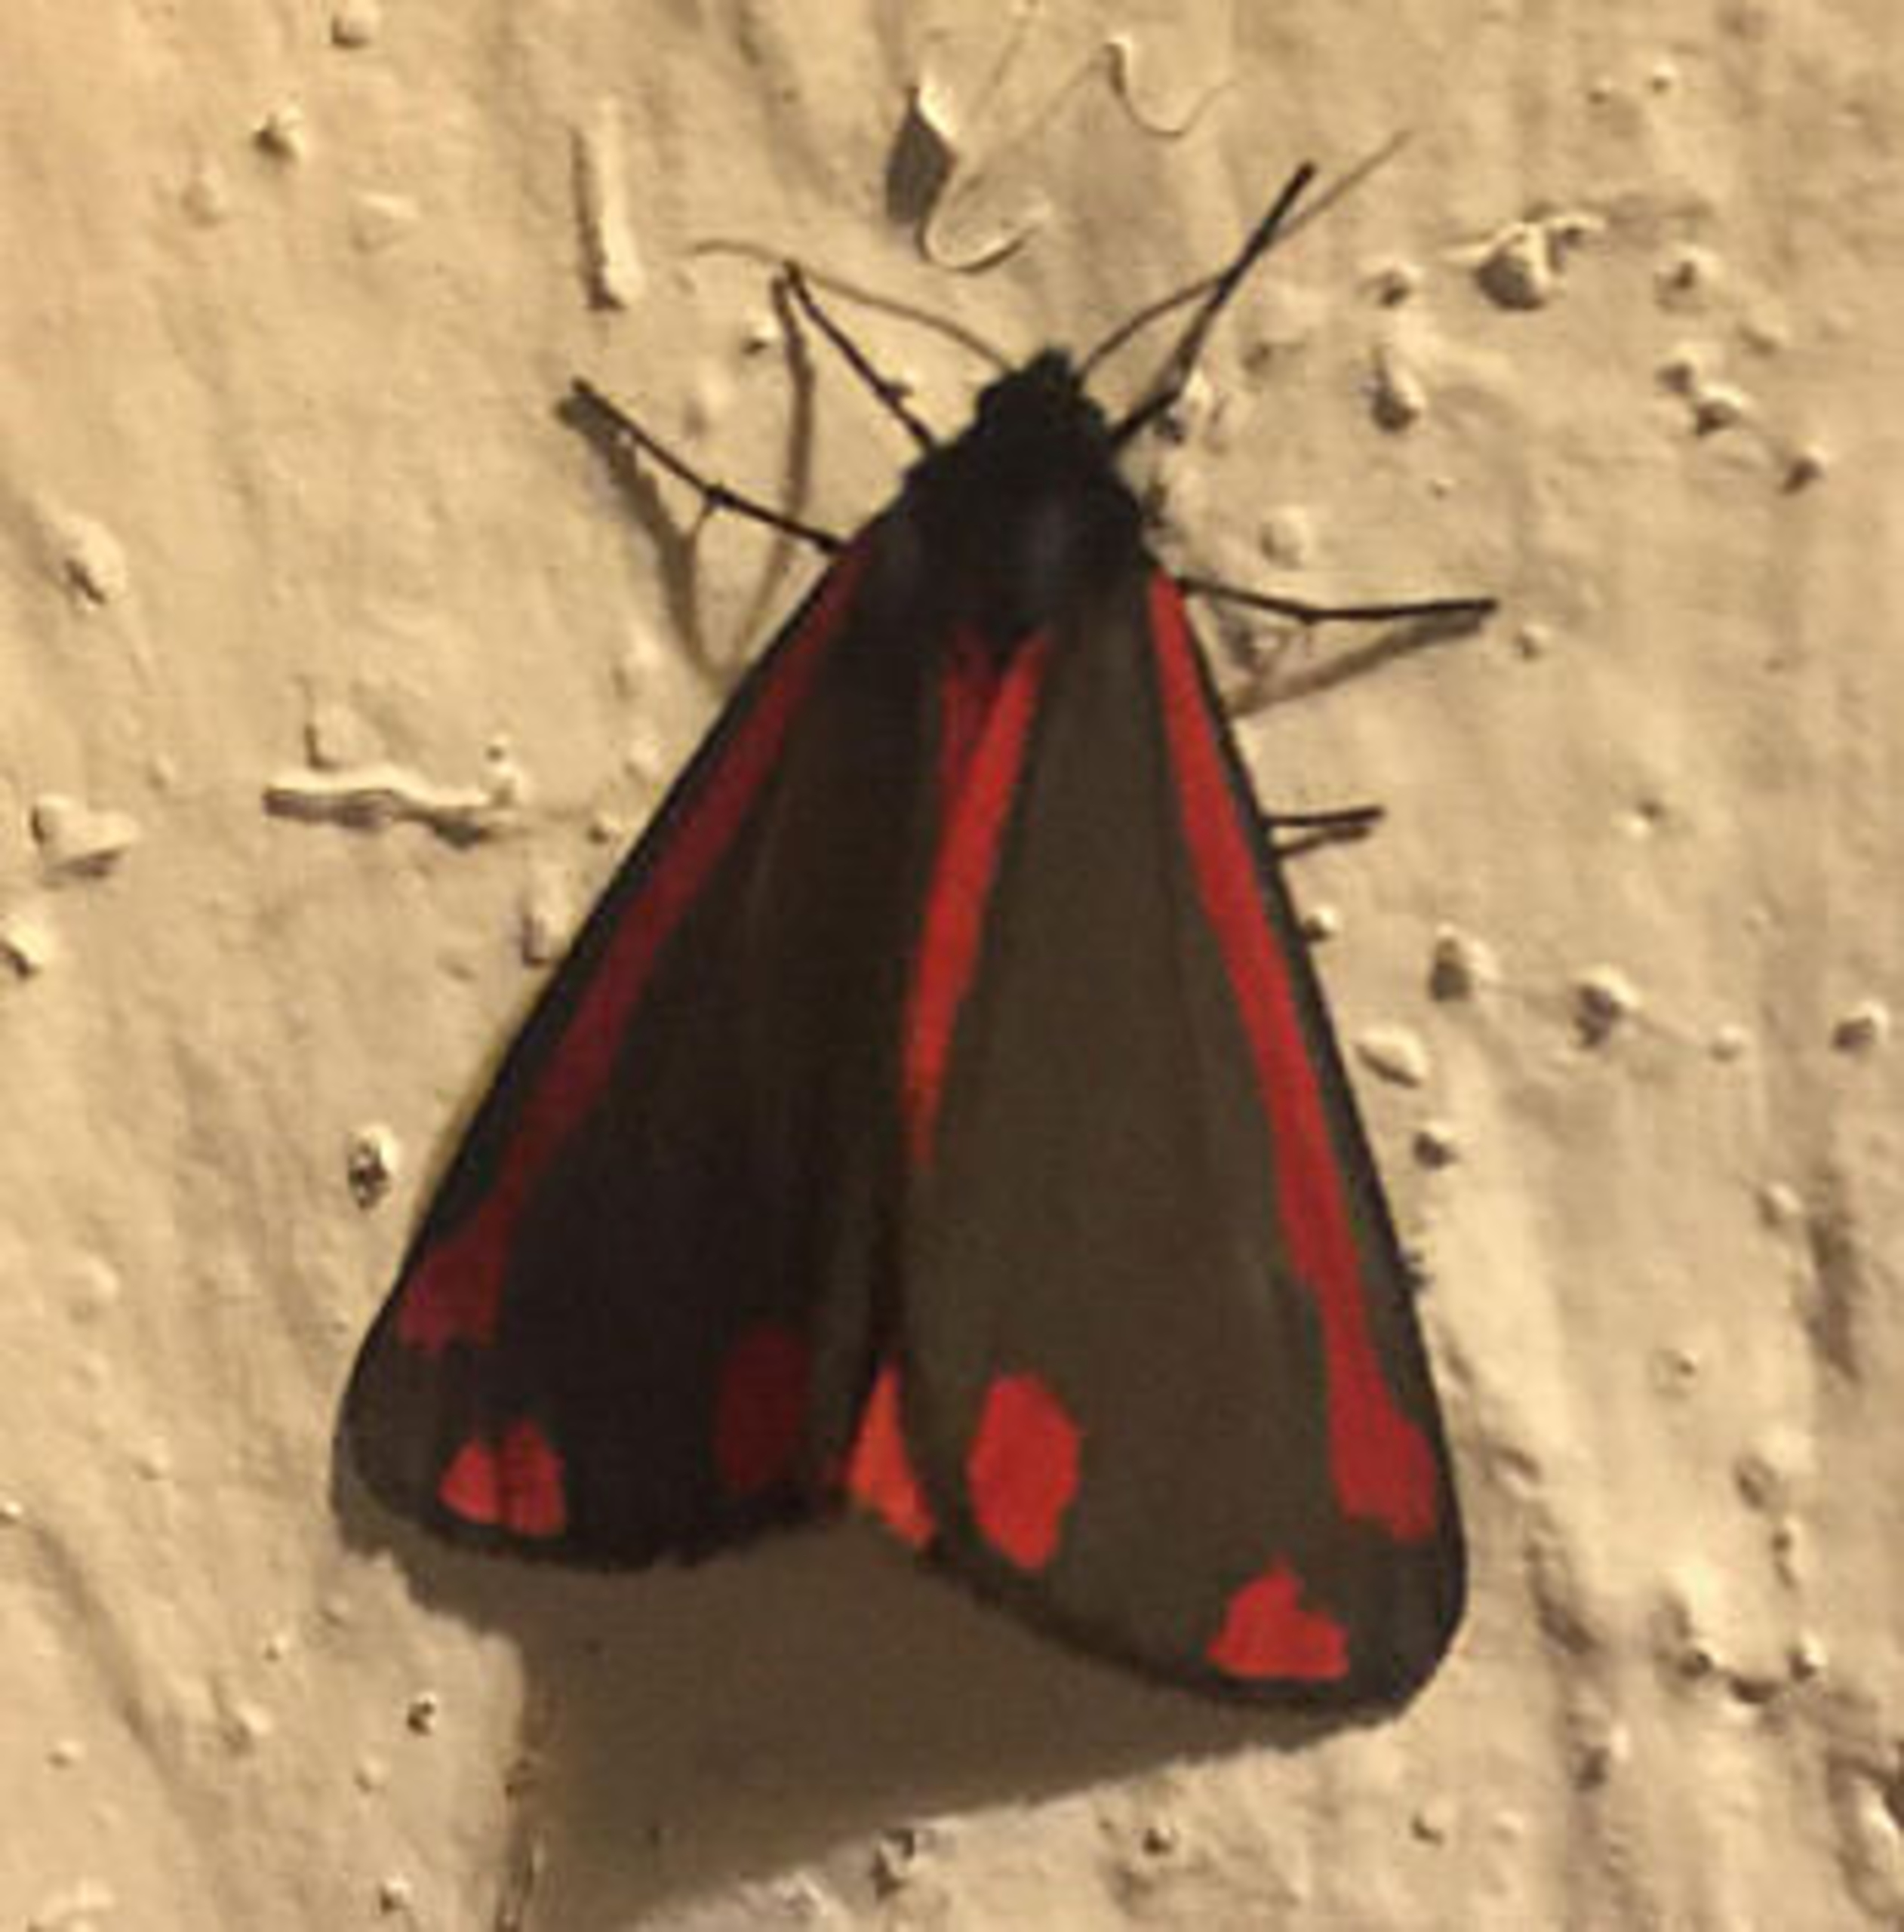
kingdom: Animalia
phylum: Arthropoda
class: Insecta
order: Lepidoptera
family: Erebidae
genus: Tyria
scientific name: Tyria jacobaeae
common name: Blodplet
